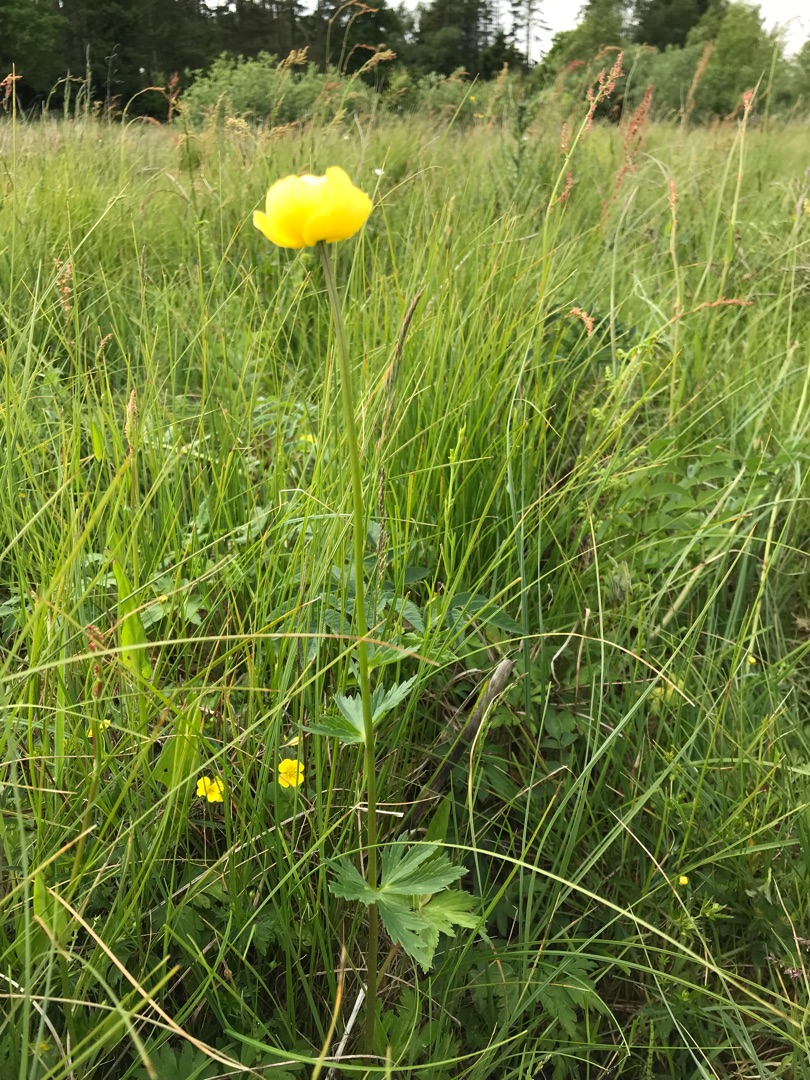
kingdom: Plantae
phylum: Tracheophyta
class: Magnoliopsida
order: Ranunculales
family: Ranunculaceae
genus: Trollius
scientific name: Trollius europaeus
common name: Engblomme
